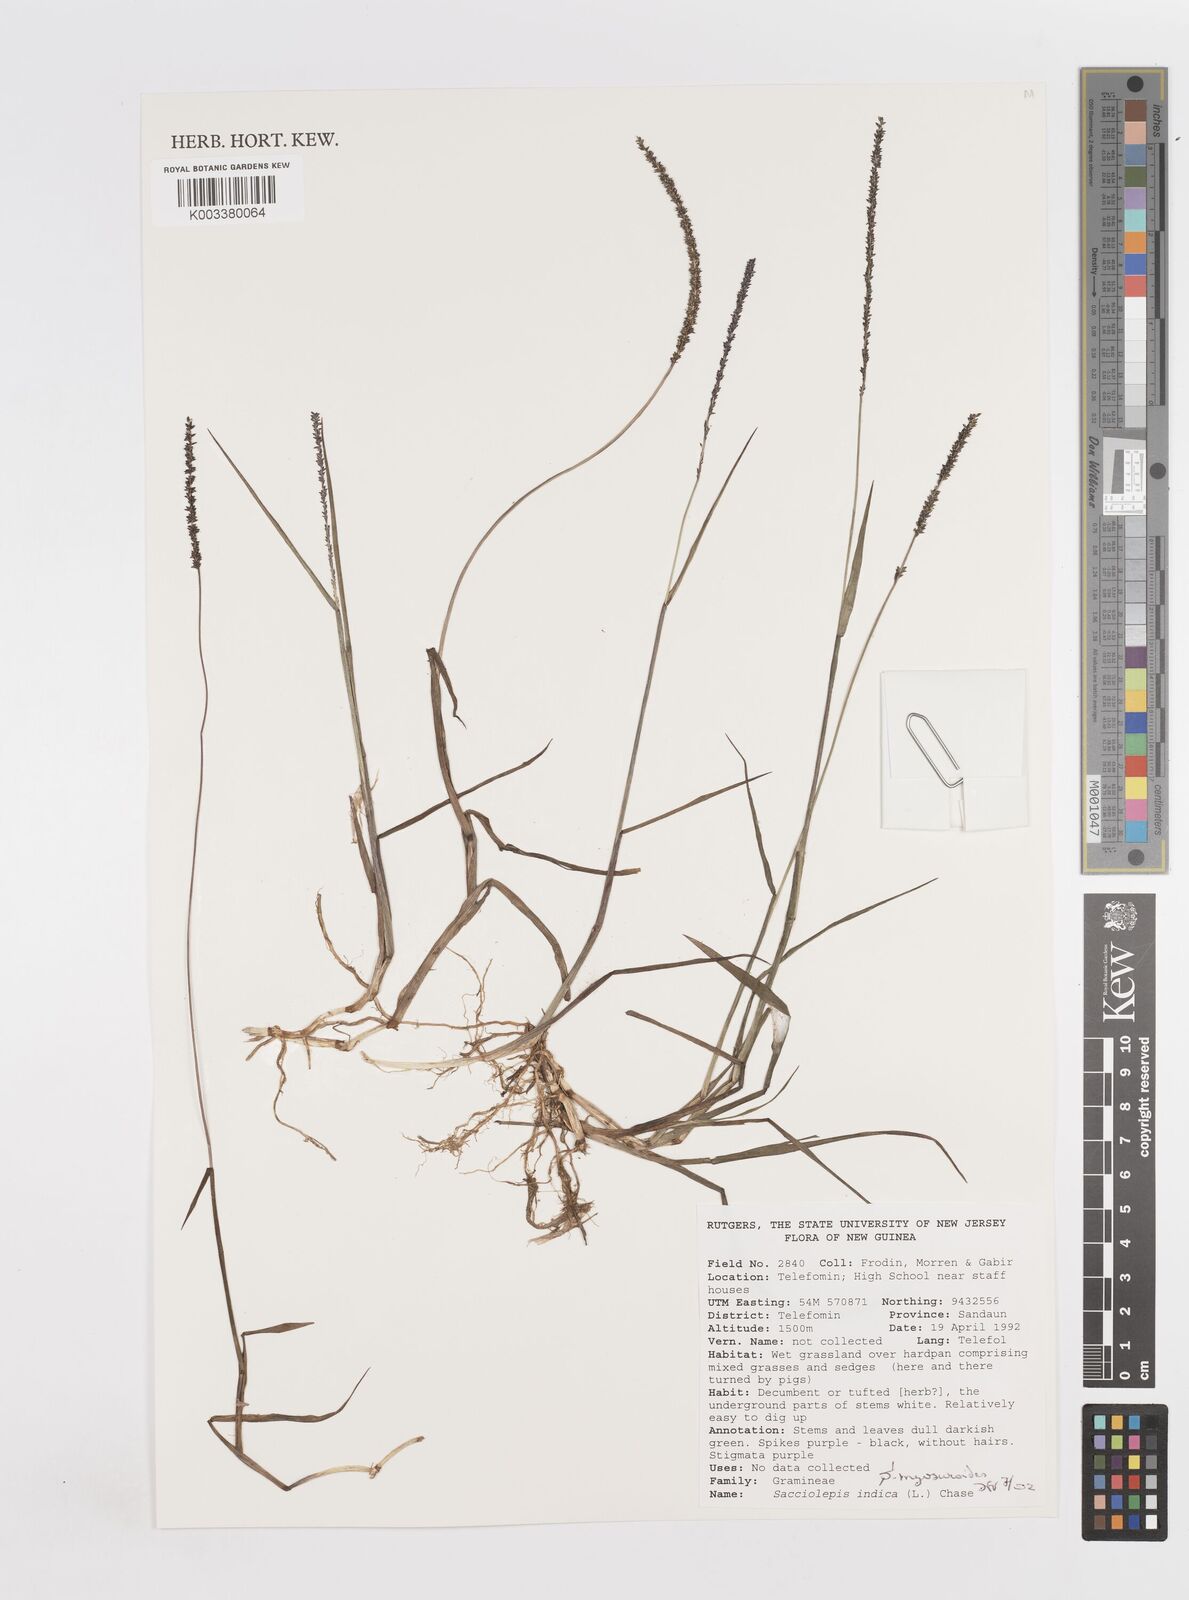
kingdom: Plantae
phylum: Tracheophyta
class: Liliopsida
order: Poales
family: Poaceae
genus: Sacciolepis
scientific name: Sacciolepis myosuroides
